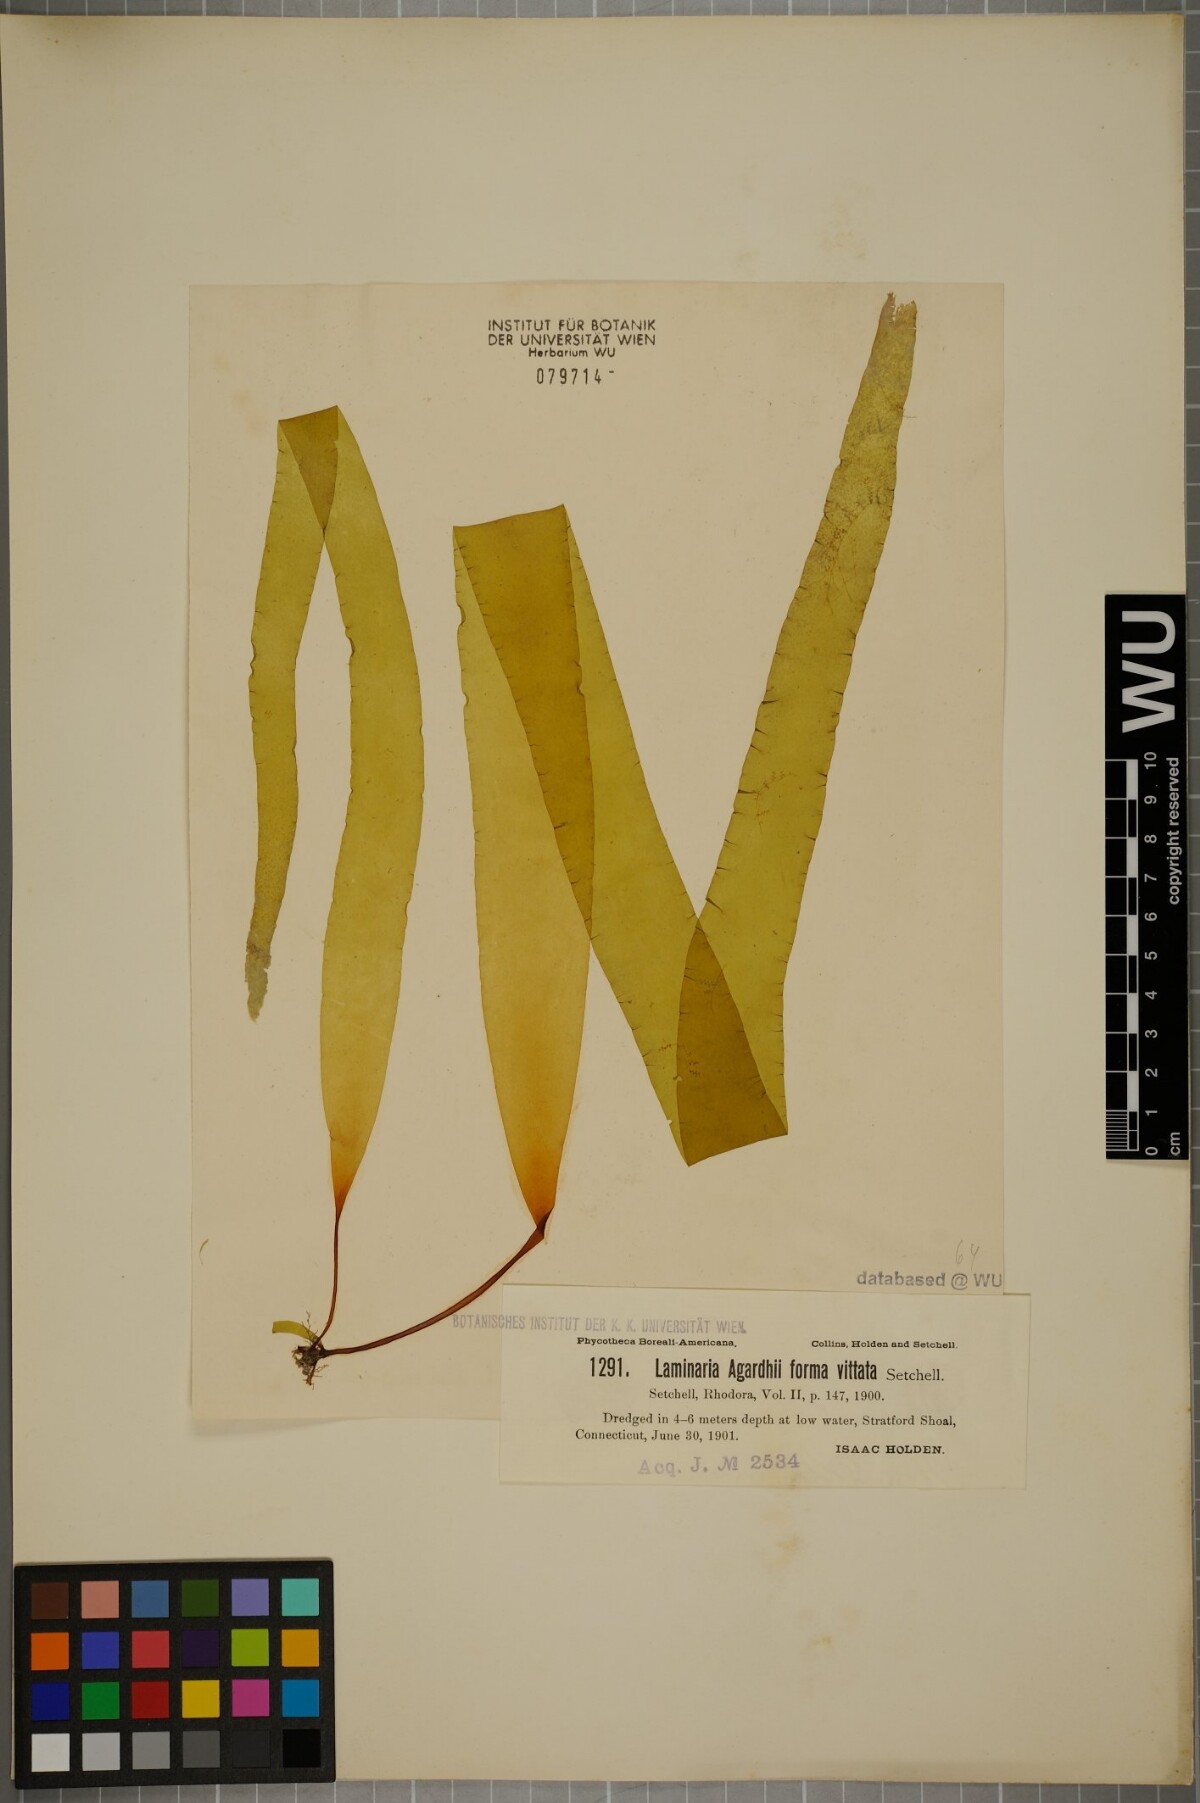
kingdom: Chromista
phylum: Ochrophyta
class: Phaeophyceae
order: Laminariales
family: Laminariaceae
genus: Saccharina
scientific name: Saccharina latissima
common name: Poor man's weather glass
